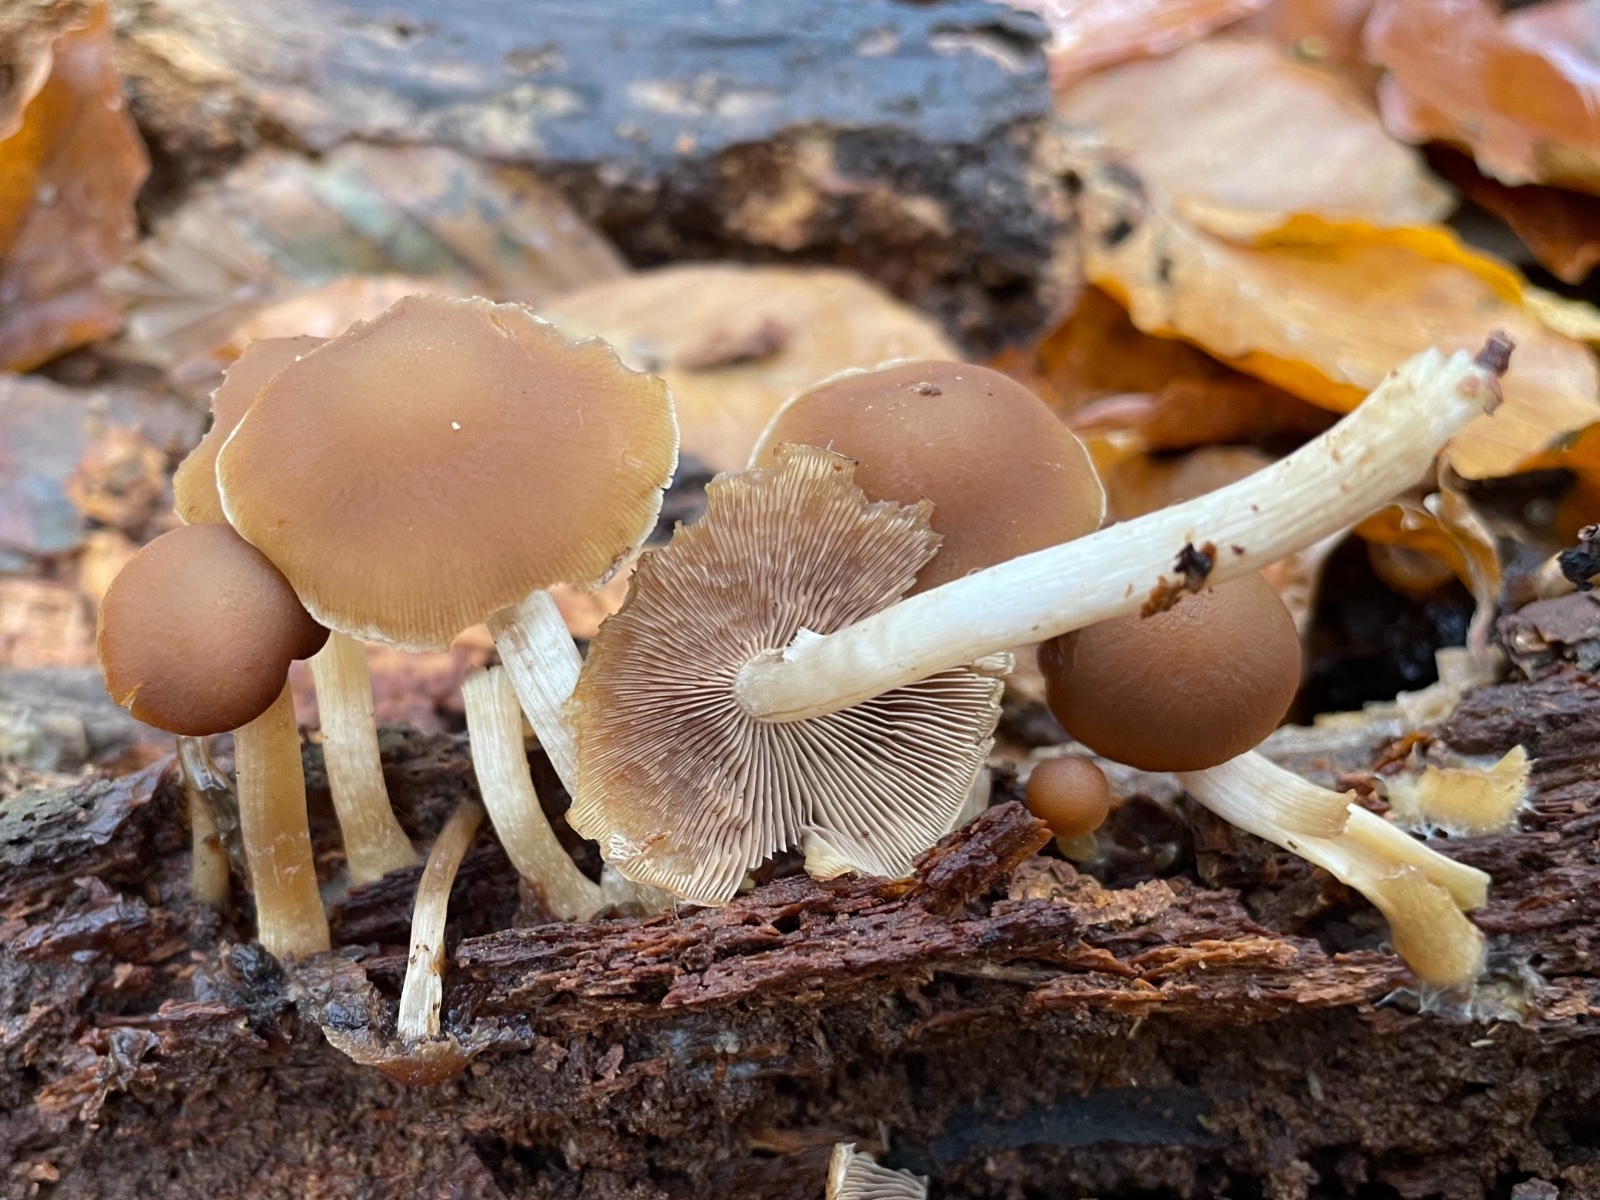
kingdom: Fungi
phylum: Basidiomycota
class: Agaricomycetes
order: Agaricales
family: Psathyrellaceae
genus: Psathyrella
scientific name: Psathyrella piluliformis
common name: lysstokket mørkhat
